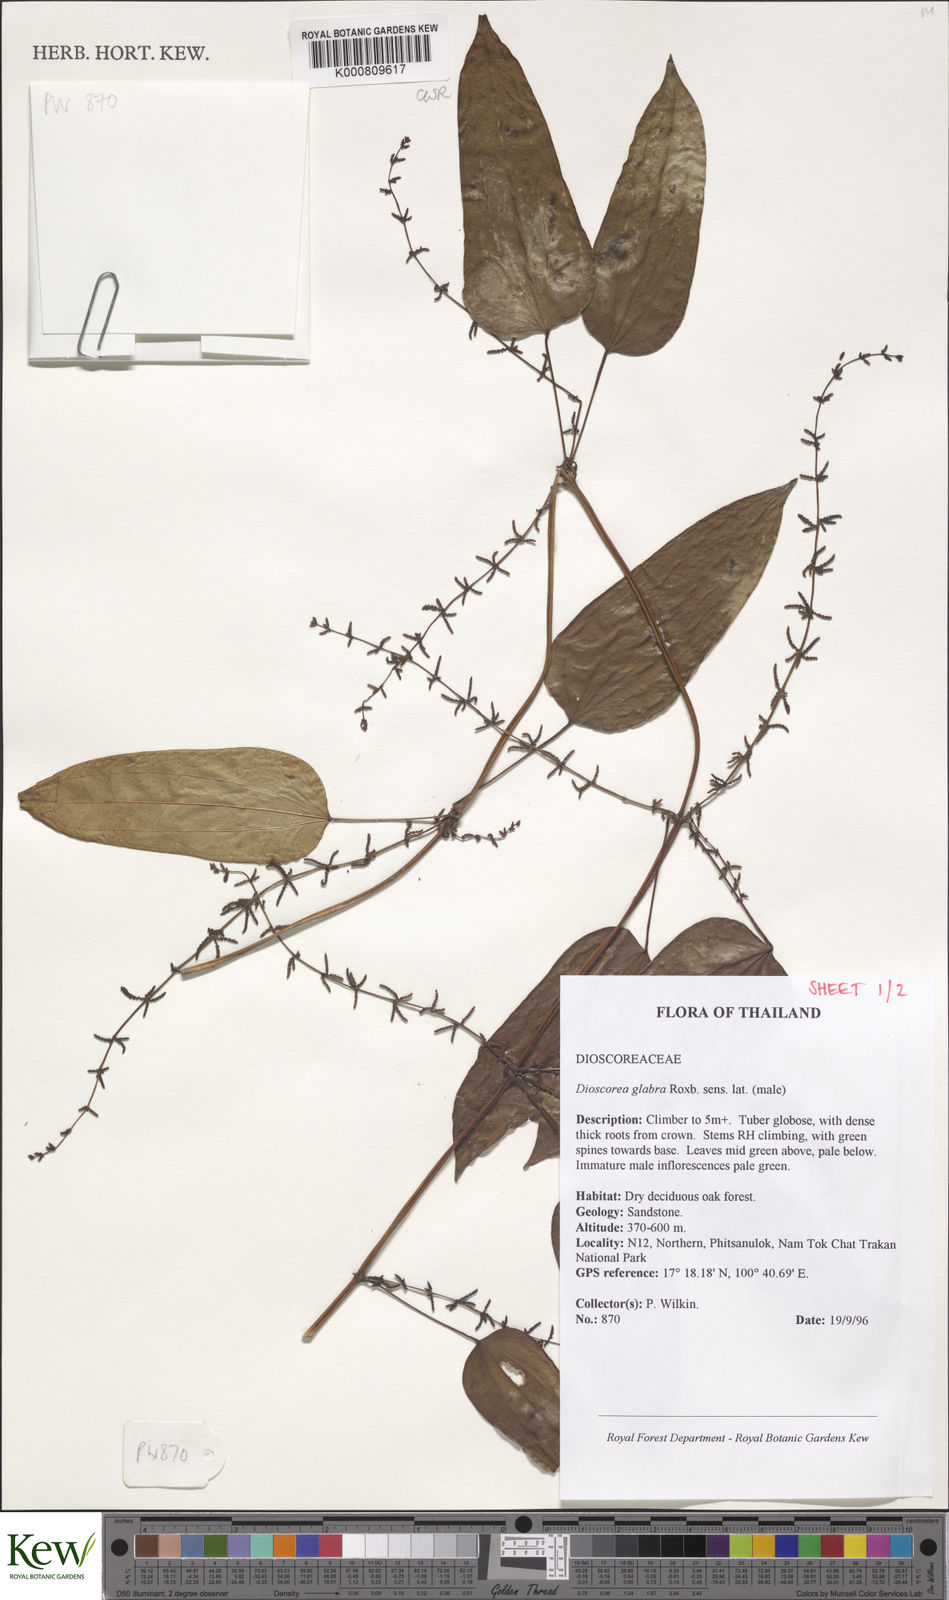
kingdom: Plantae
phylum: Tracheophyta
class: Liliopsida
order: Dioscoreales
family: Dioscoreaceae
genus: Dioscorea
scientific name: Dioscorea glabra
